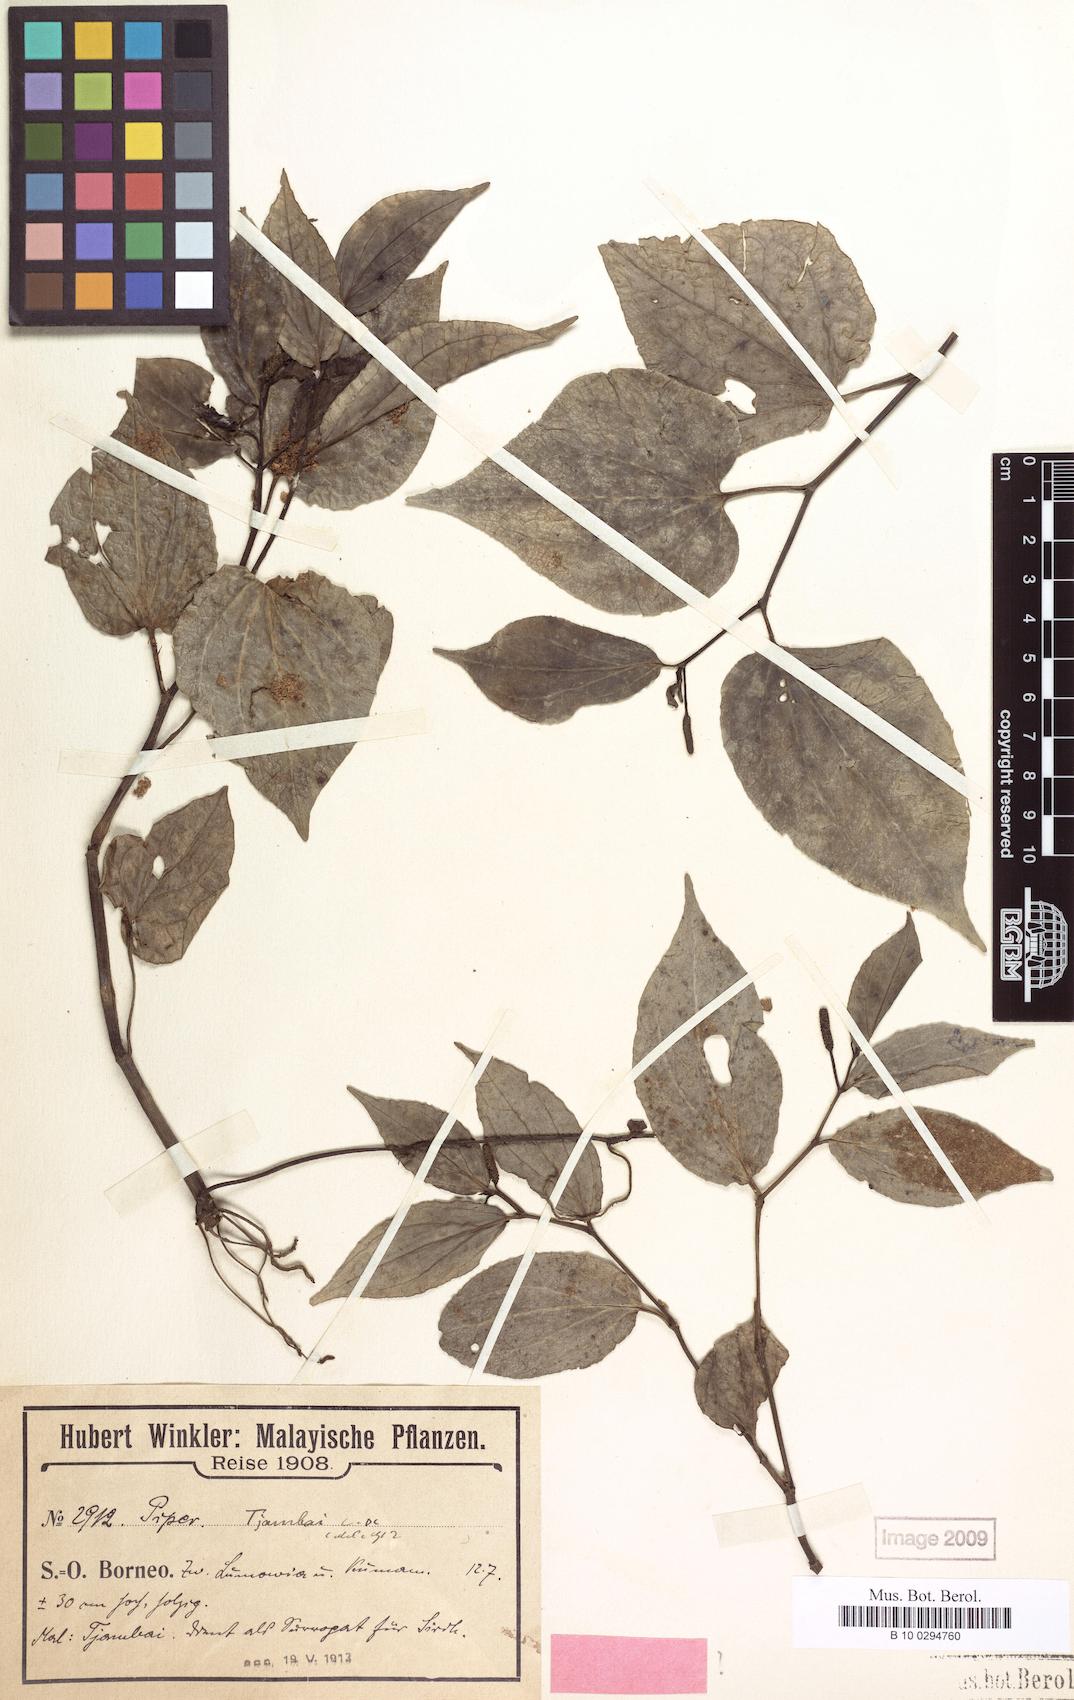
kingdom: Plantae
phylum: Tracheophyta
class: Magnoliopsida
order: Piperales
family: Piperaceae
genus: Piper
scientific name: Piper tjambai
